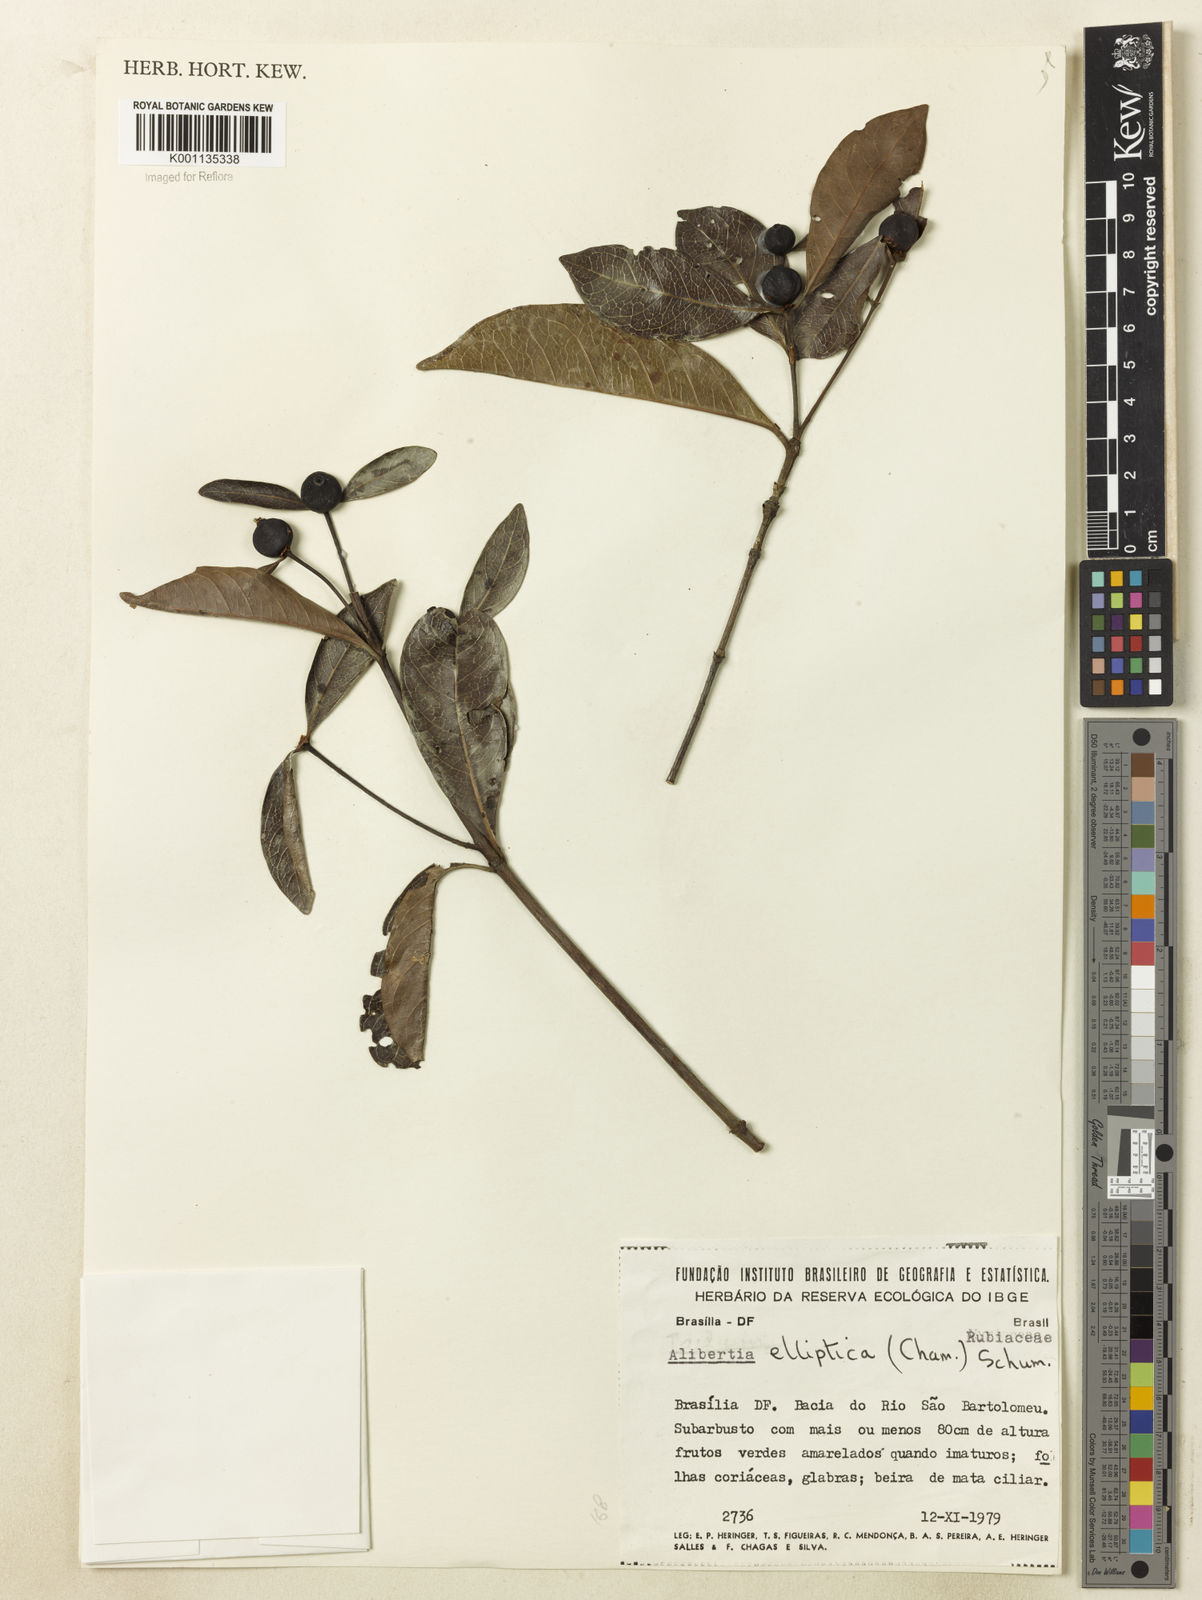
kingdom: Plantae
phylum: Tracheophyta
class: Magnoliopsida
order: Gentianales
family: Rubiaceae
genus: Cordiera
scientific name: Cordiera elliptica
